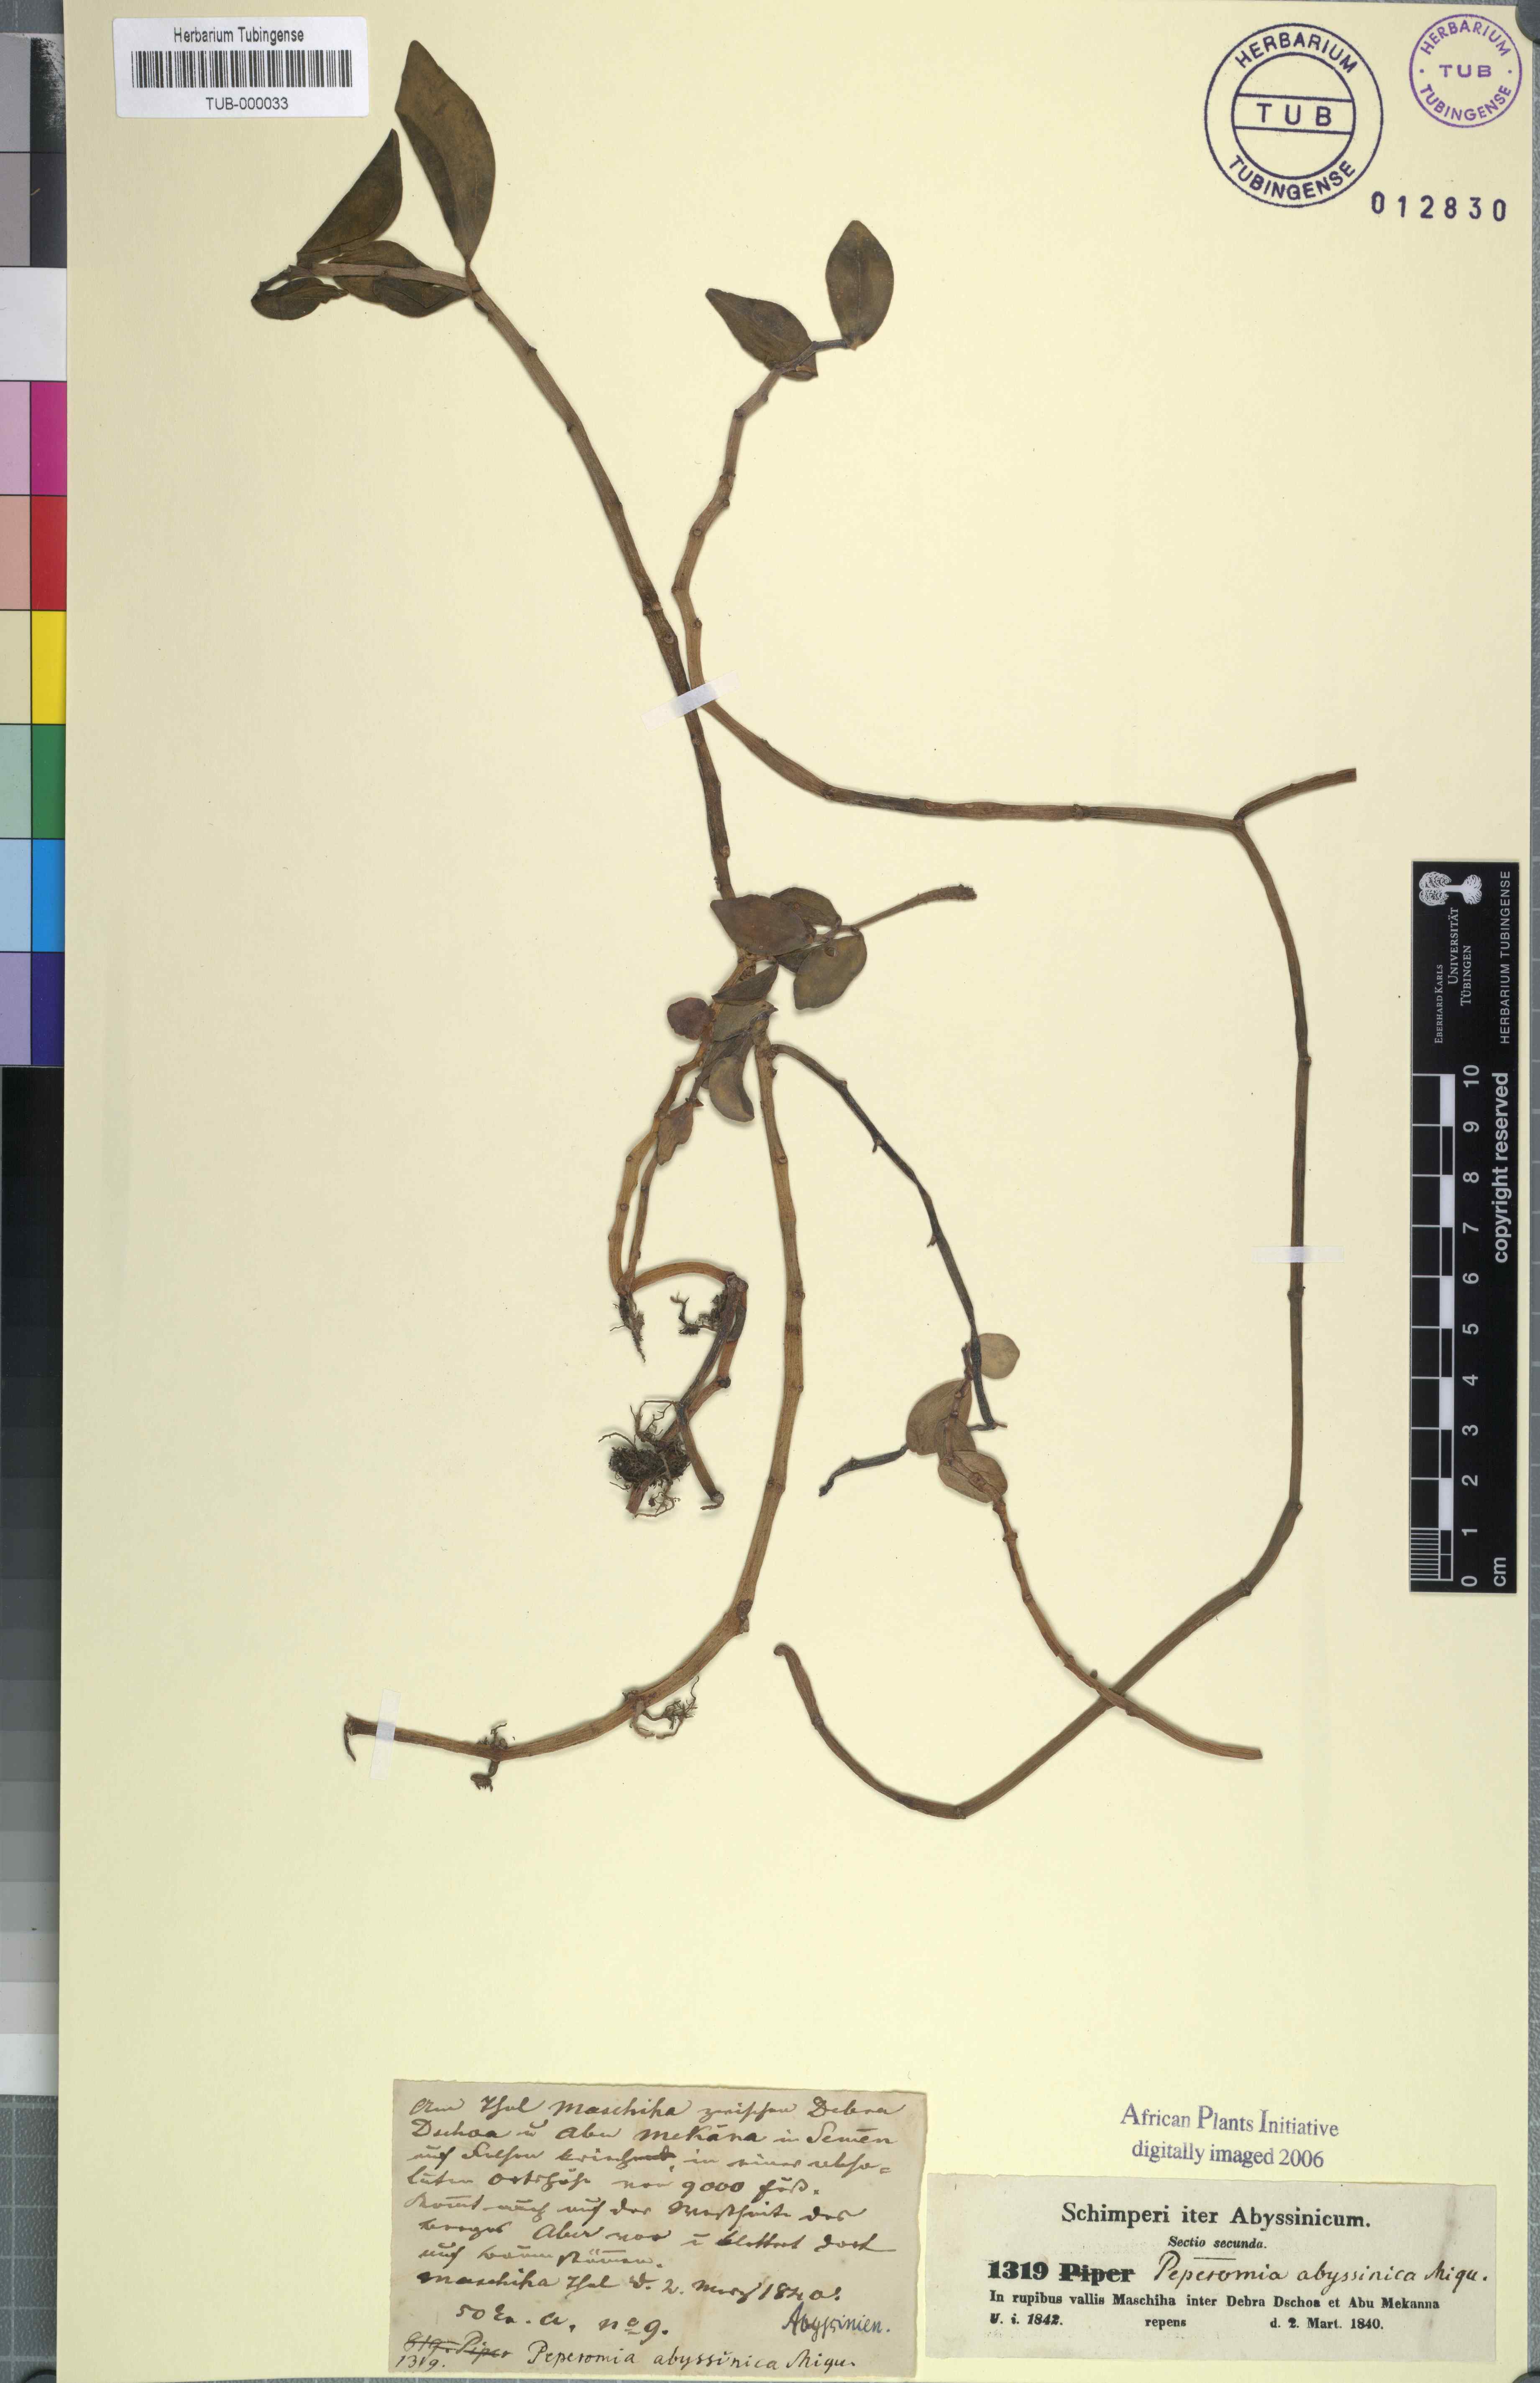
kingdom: Plantae
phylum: Tracheophyta
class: Magnoliopsida
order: Piperales
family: Piperaceae
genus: Peperomia
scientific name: Peperomia abyssinica
